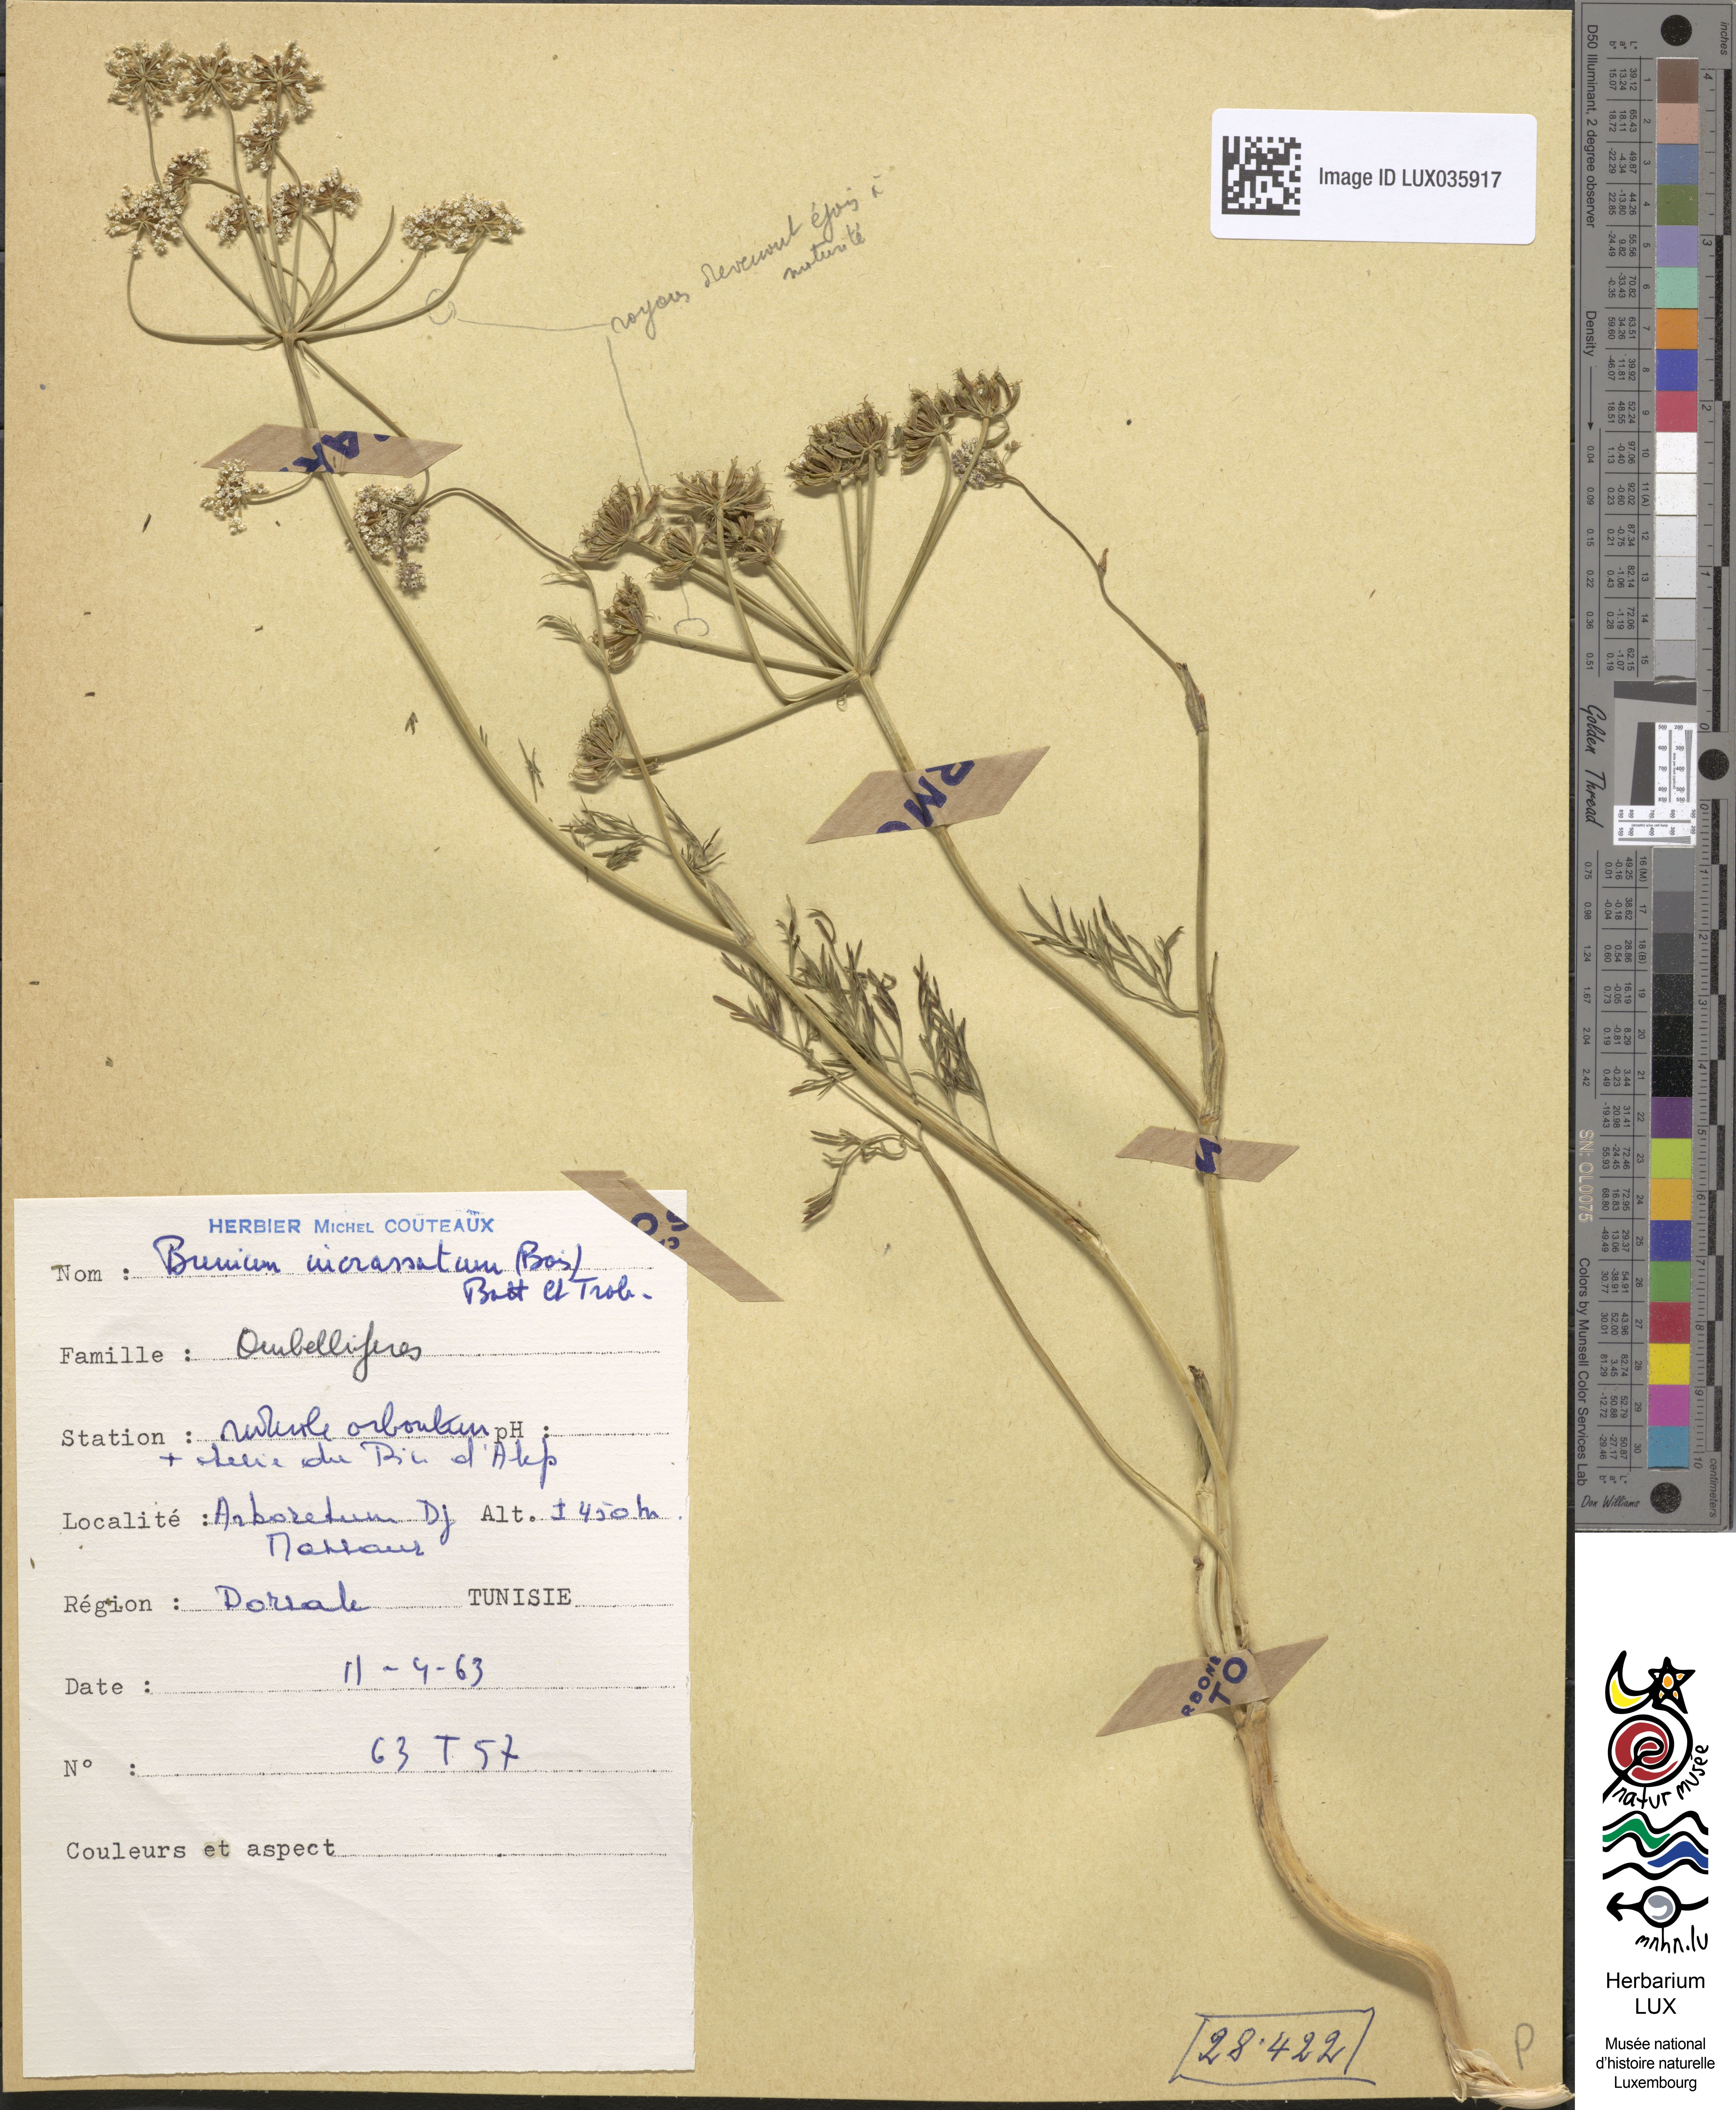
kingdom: Plantae
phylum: Tracheophyta
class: Magnoliopsida
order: Apiales
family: Apiaceae
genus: Bunium
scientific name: Bunium pachypodum
